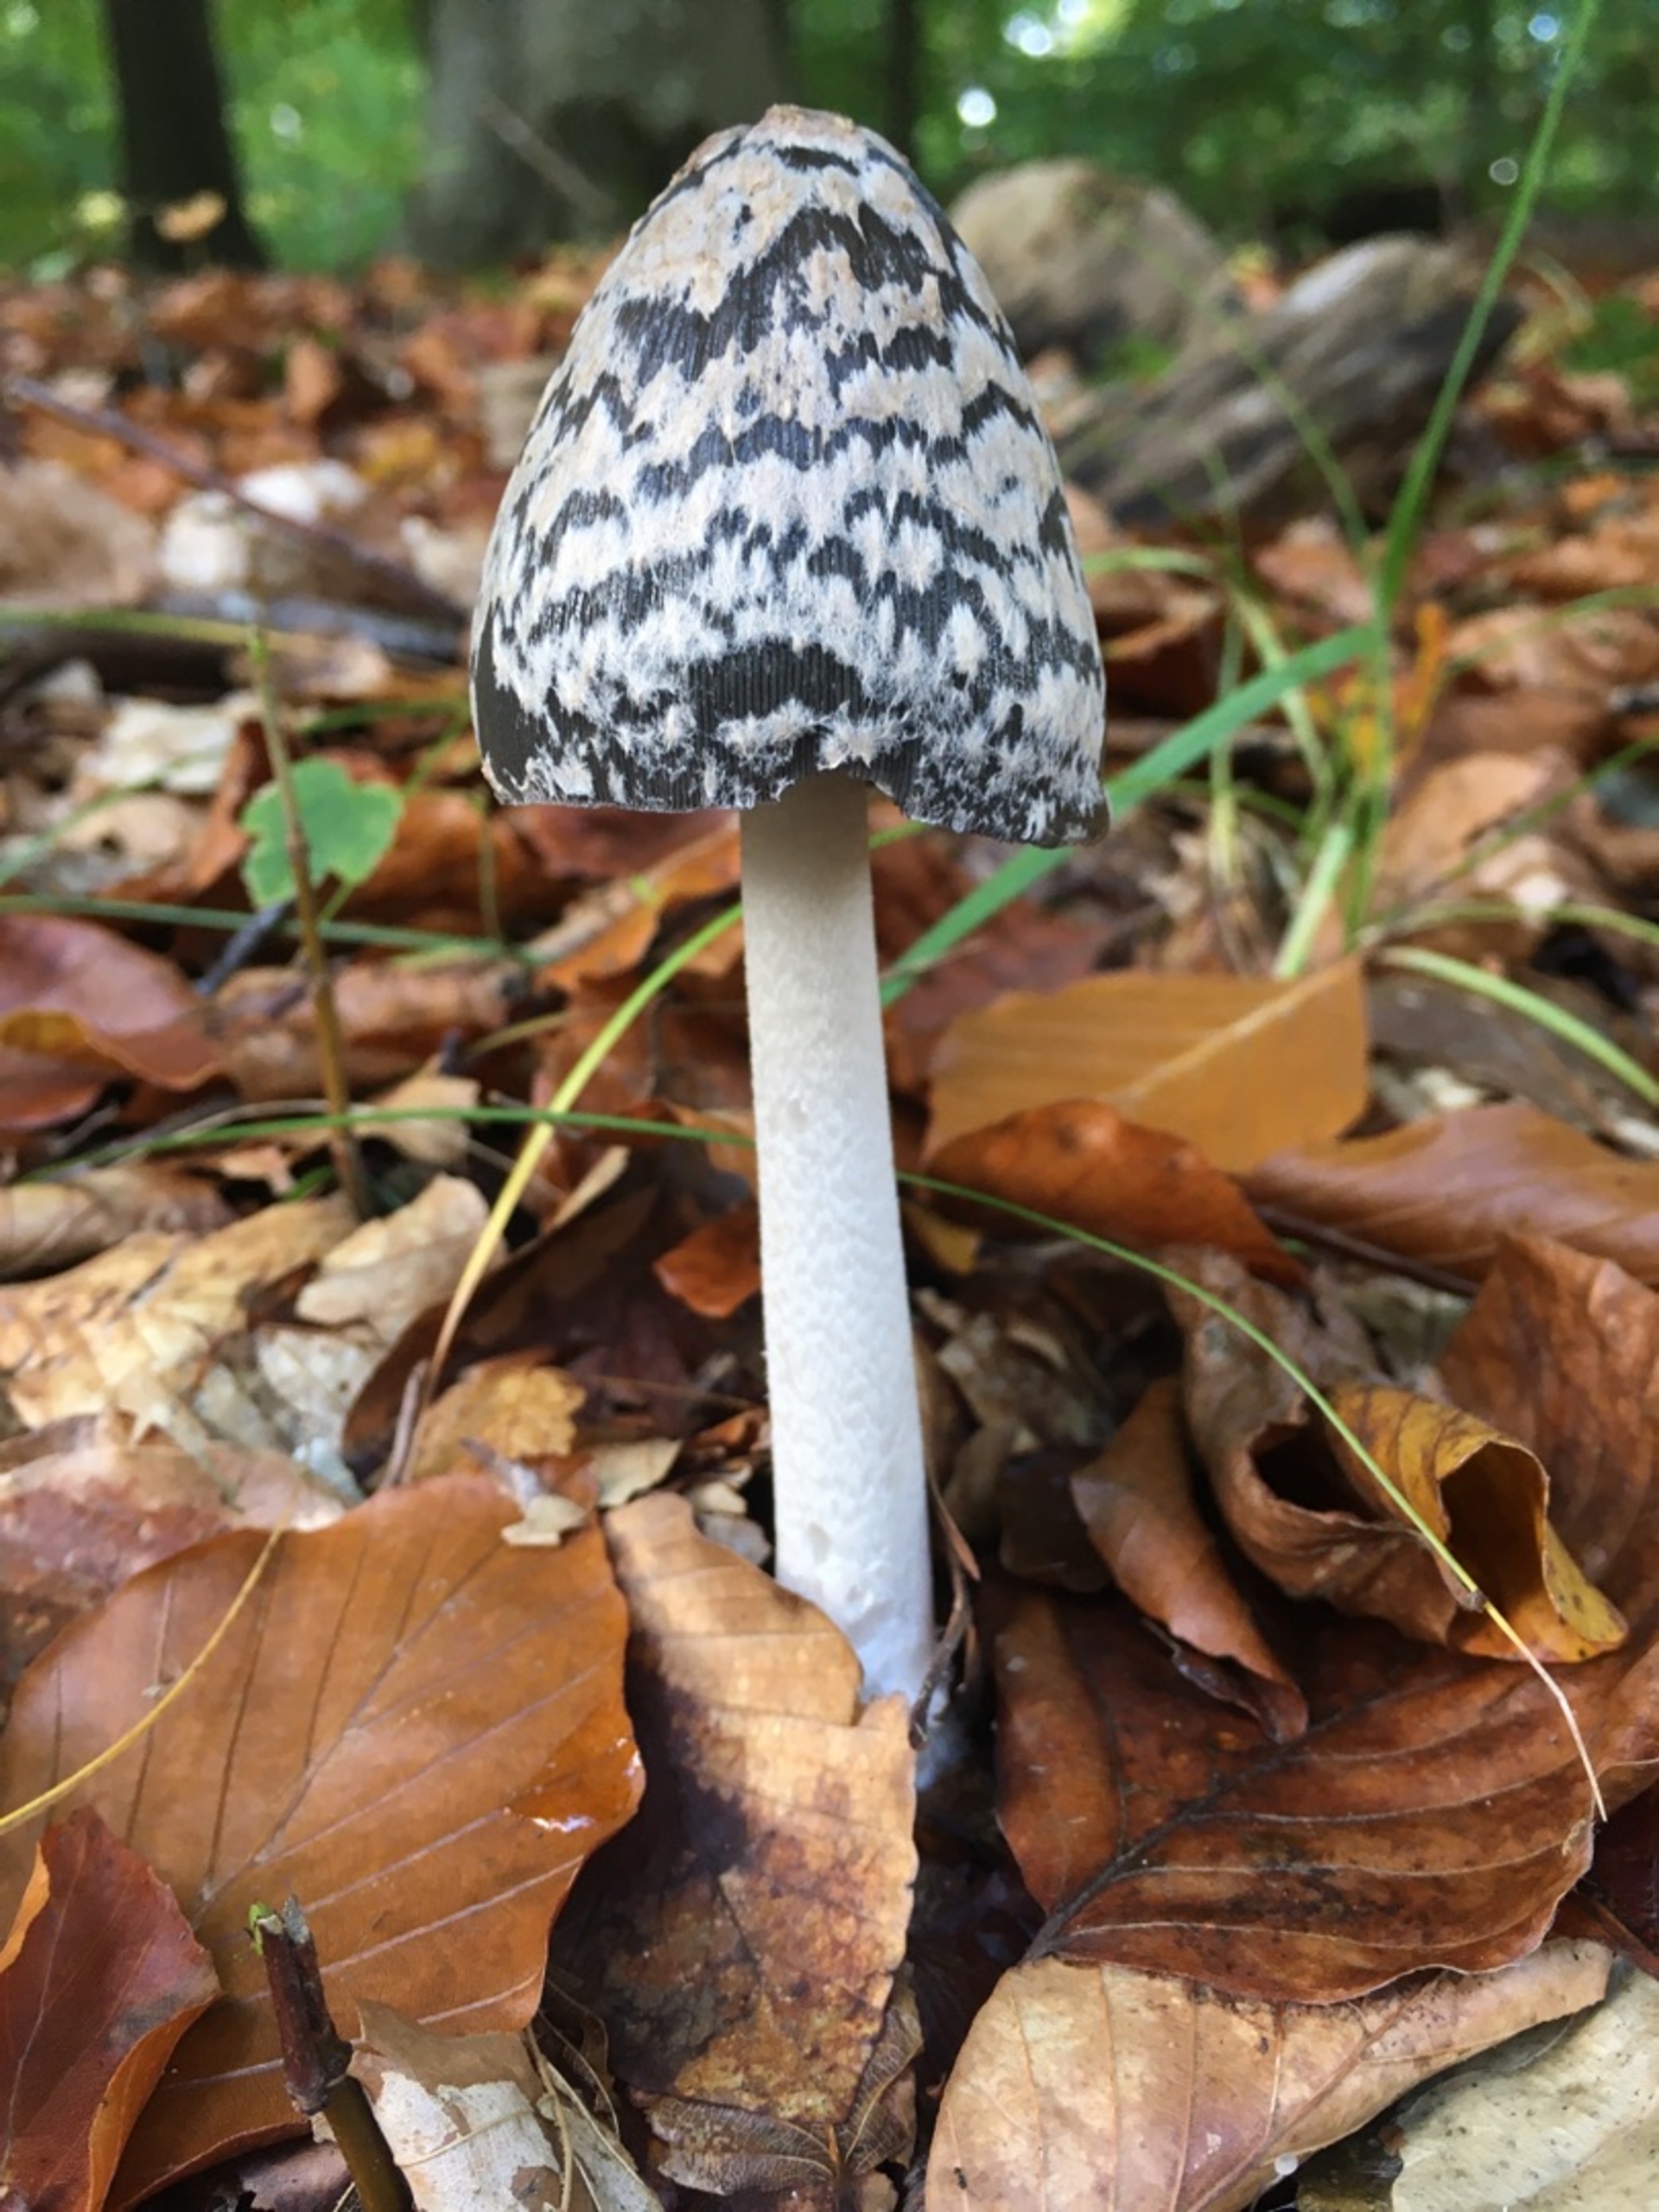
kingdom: Fungi
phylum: Basidiomycota
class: Agaricomycetes
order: Agaricales
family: Psathyrellaceae
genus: Coprinopsis
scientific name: Coprinopsis picacea
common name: Skade-blækhat
